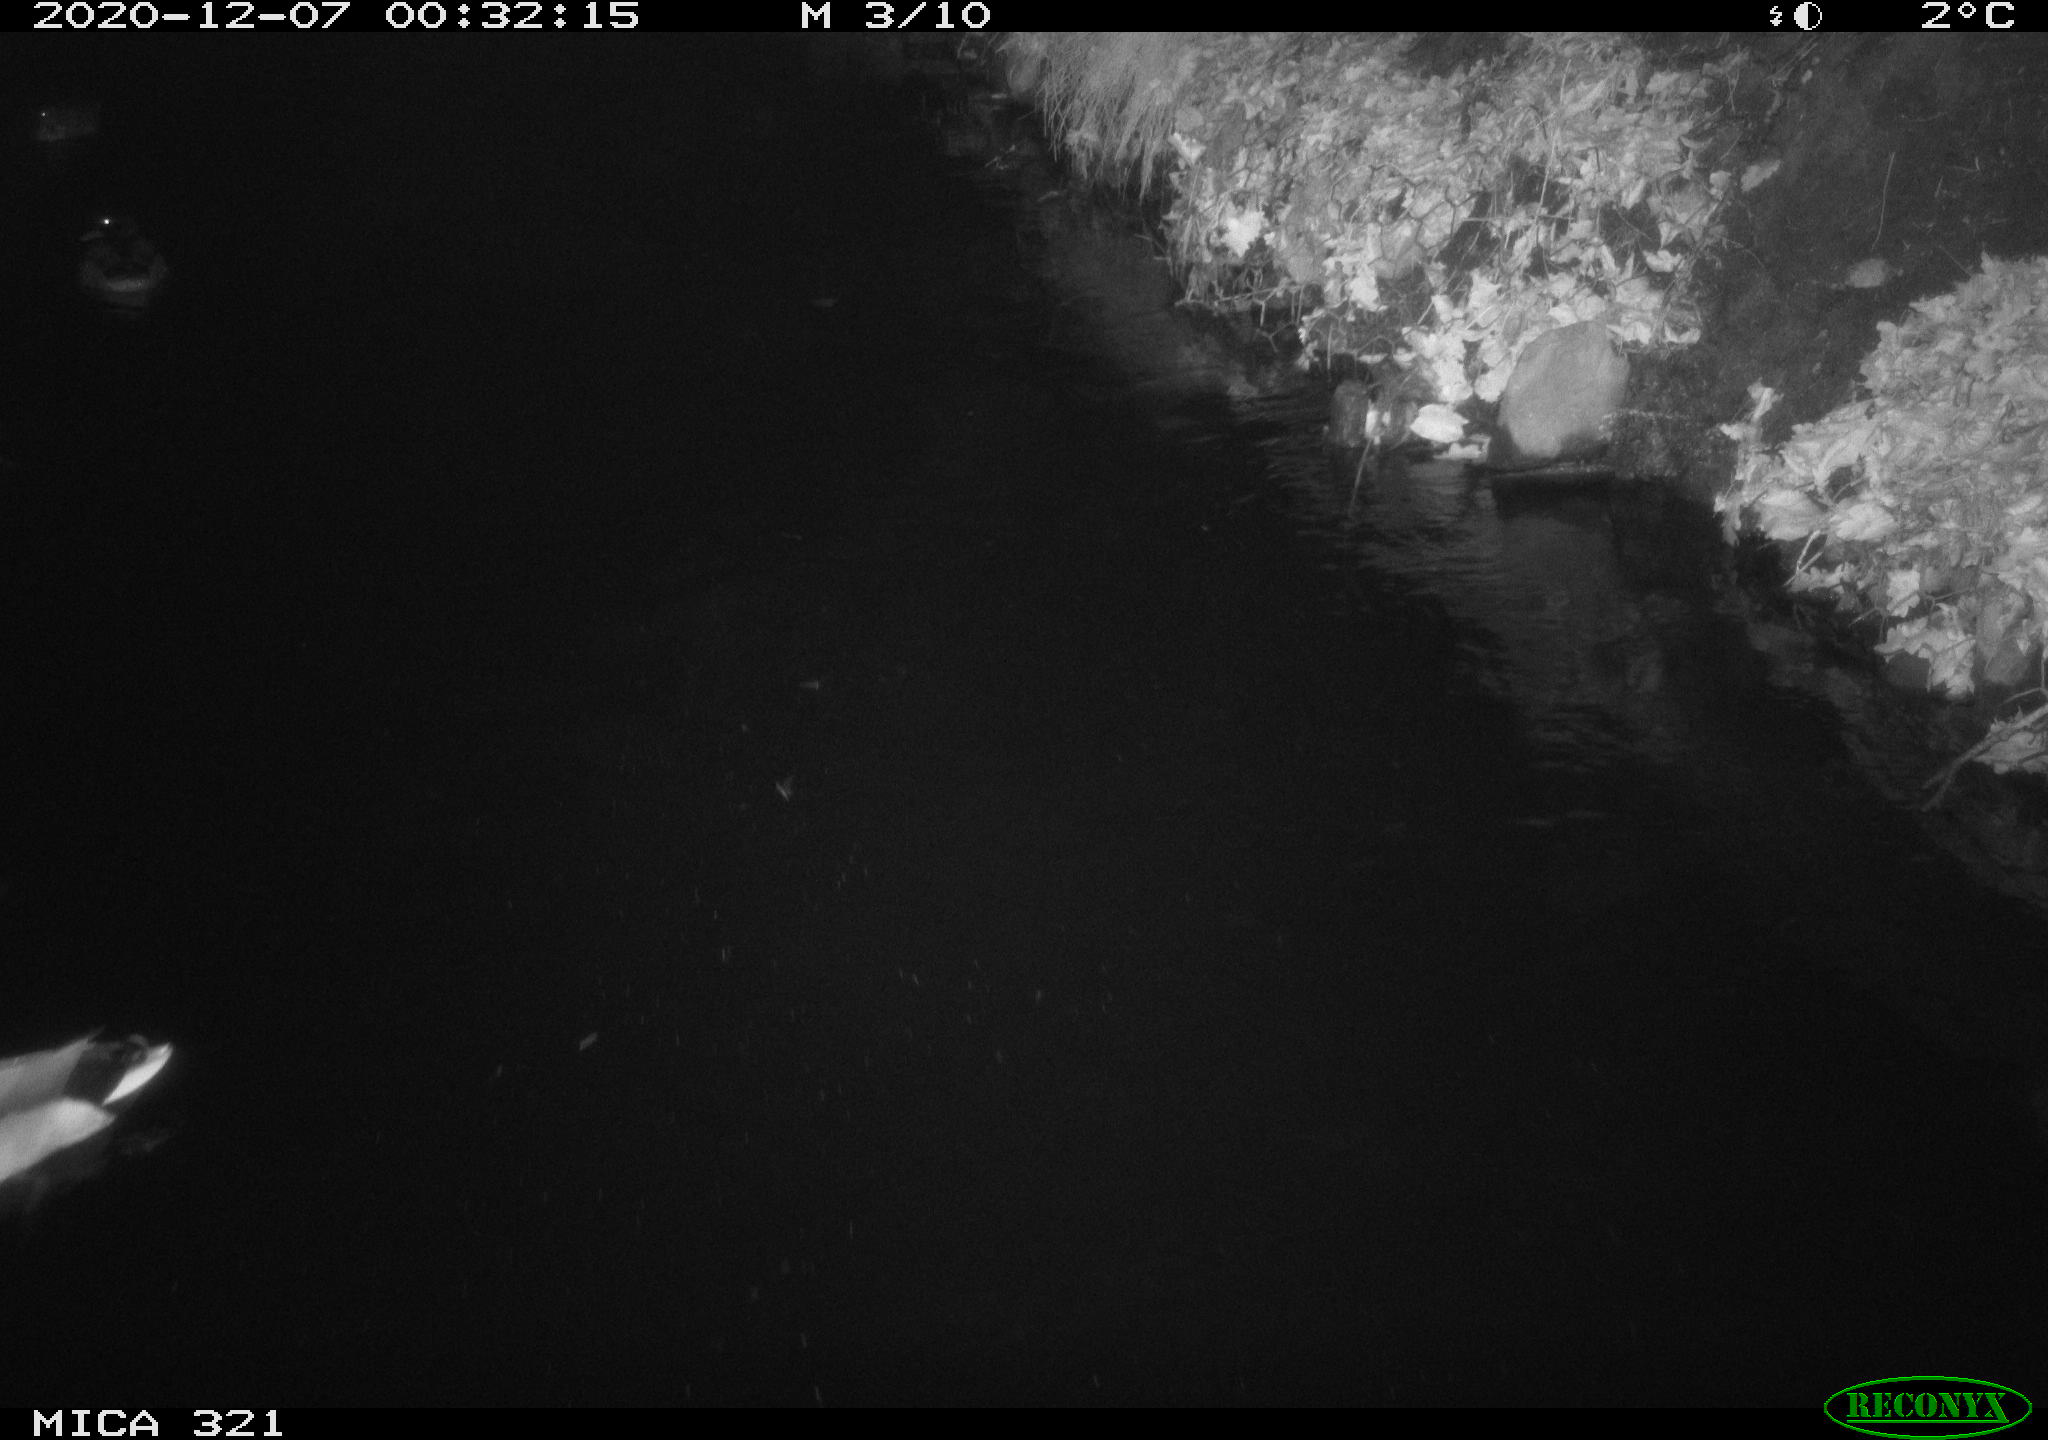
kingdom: Animalia
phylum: Chordata
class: Aves
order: Anseriformes
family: Anatidae
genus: Anas
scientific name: Anas platyrhynchos
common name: Mallard
